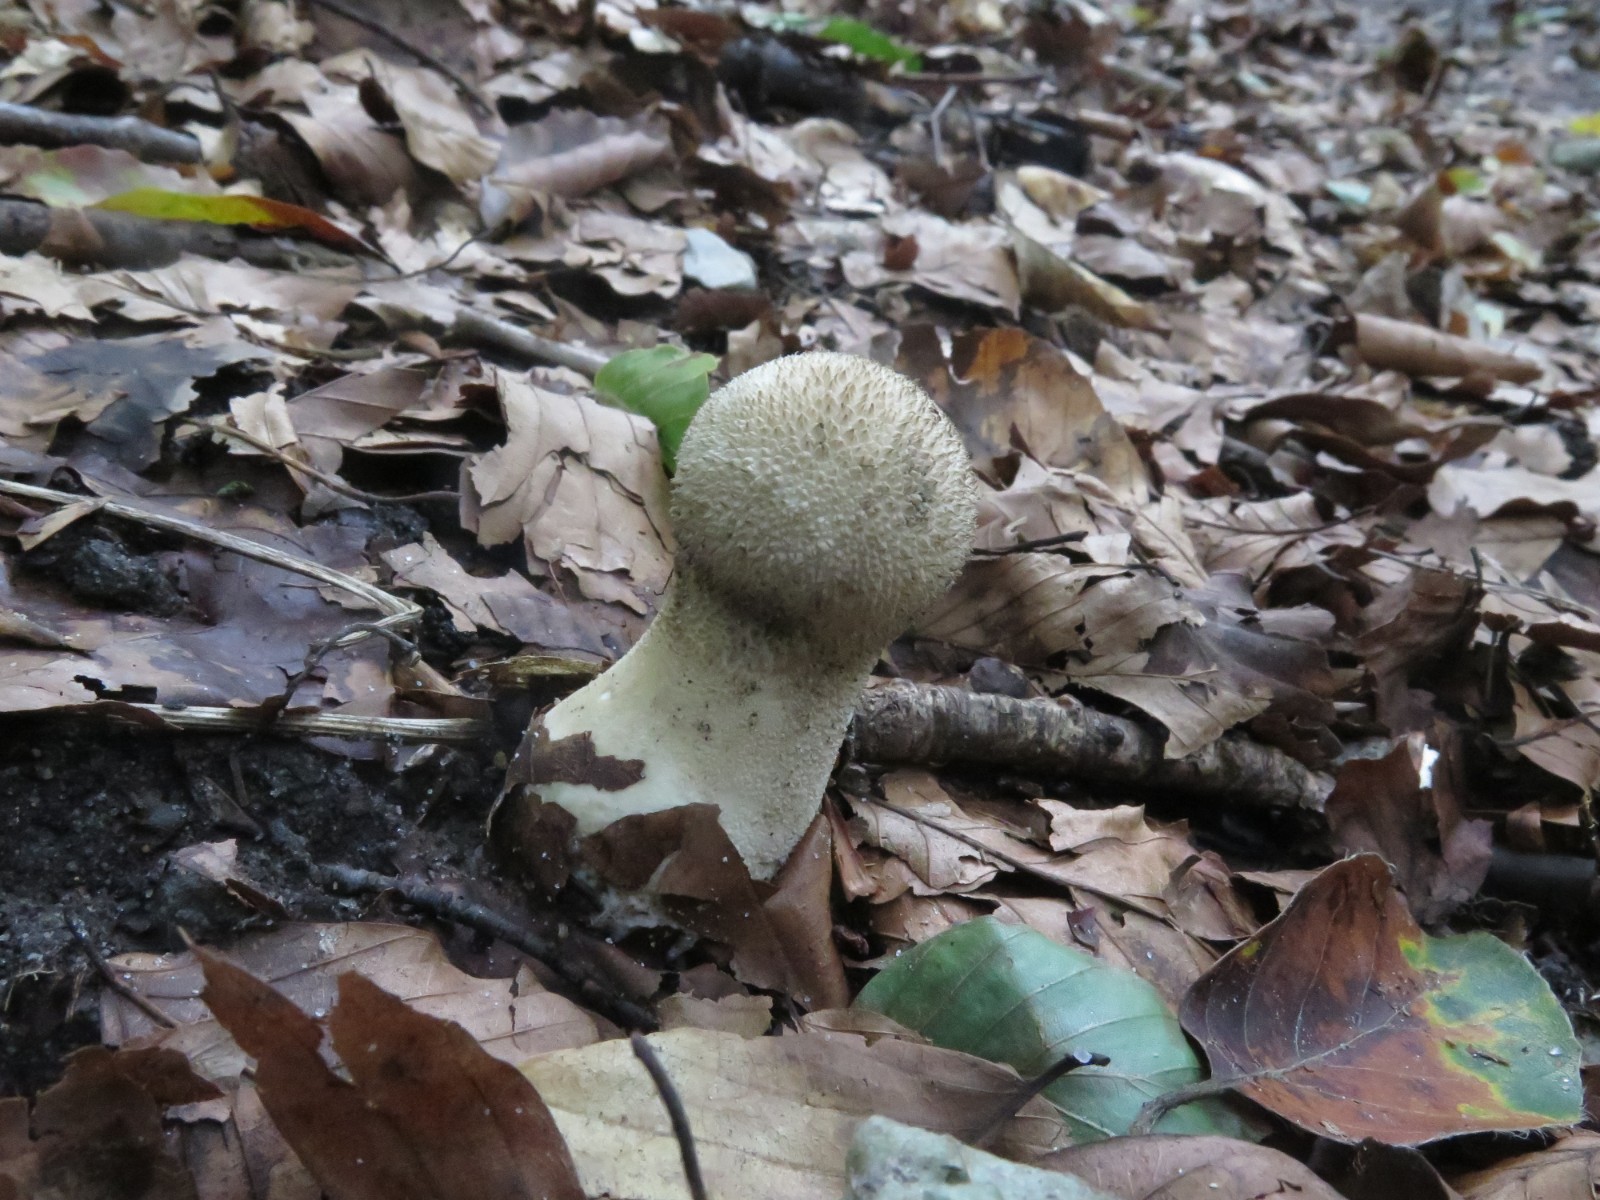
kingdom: Fungi
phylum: Basidiomycota
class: Agaricomycetes
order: Agaricales
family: Lycoperdaceae
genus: Lycoperdon
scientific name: Lycoperdon excipuliforme
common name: højstokket støvbold
